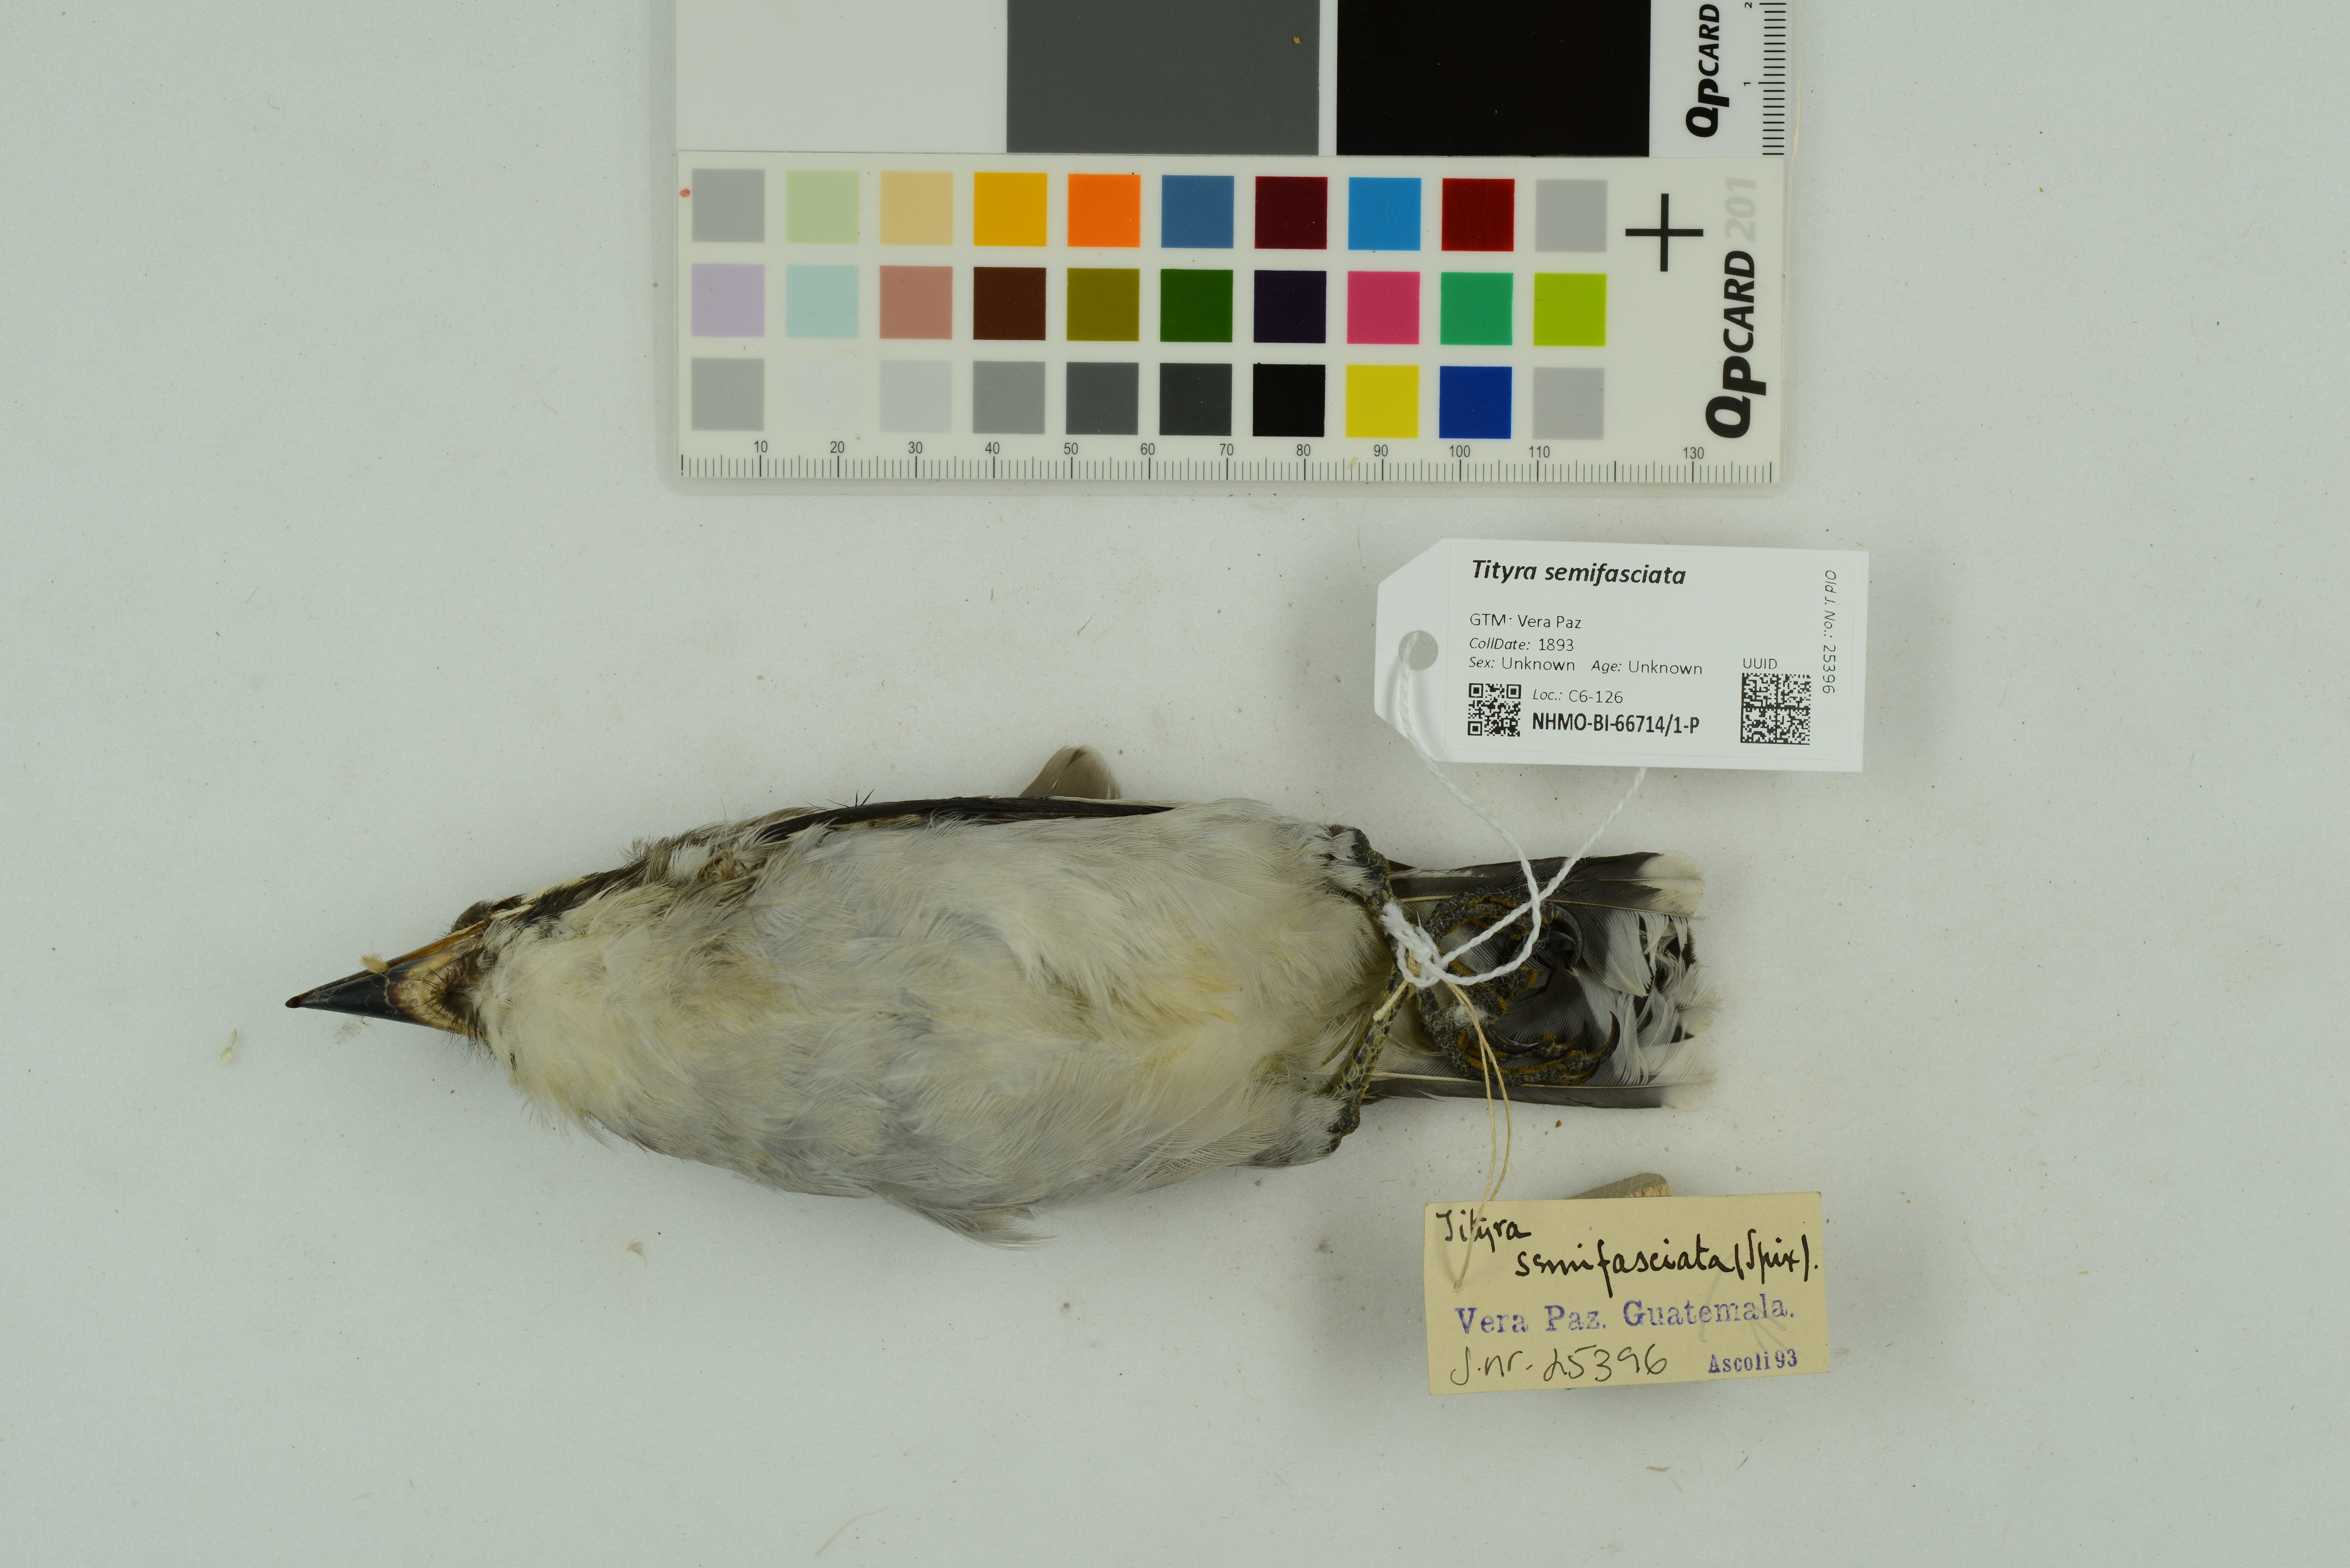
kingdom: Animalia
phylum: Chordata
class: Aves
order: Passeriformes
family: Cotingidae
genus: Tityra
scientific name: Tityra semifasciata
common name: Masked tityra
